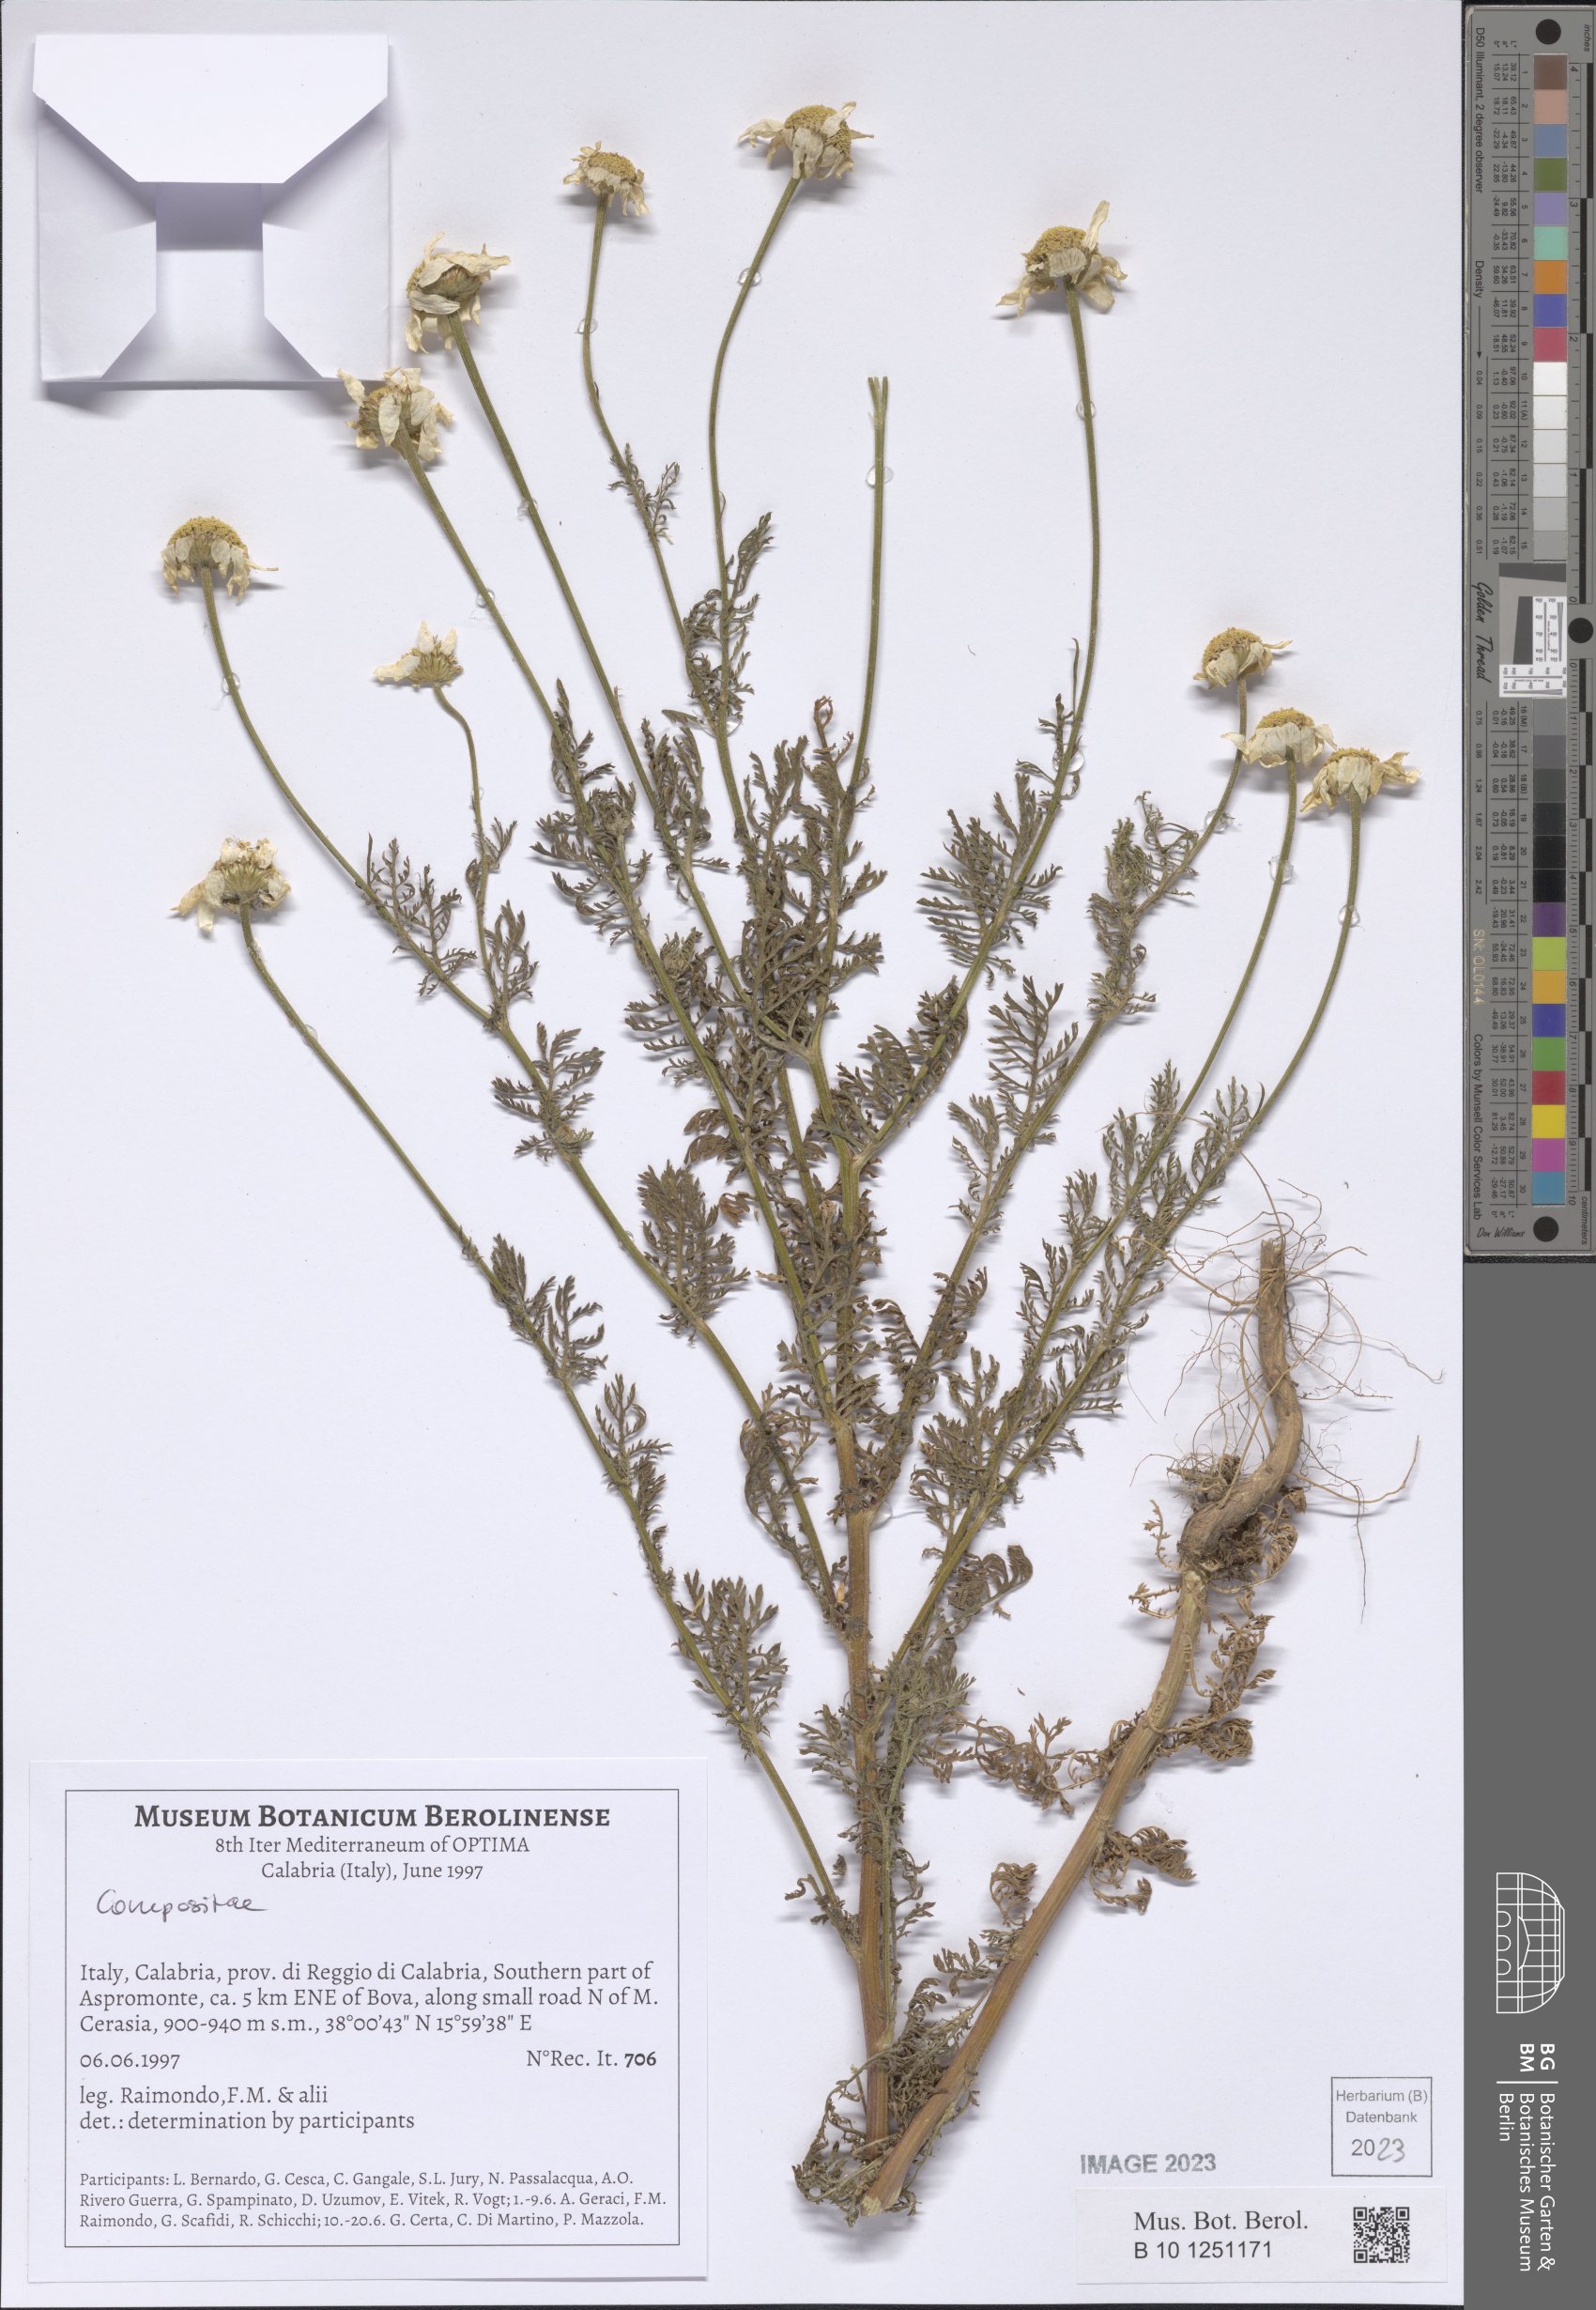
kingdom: Plantae
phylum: Tracheophyta
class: Magnoliopsida
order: Asterales
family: Asteraceae
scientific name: Asteraceae
